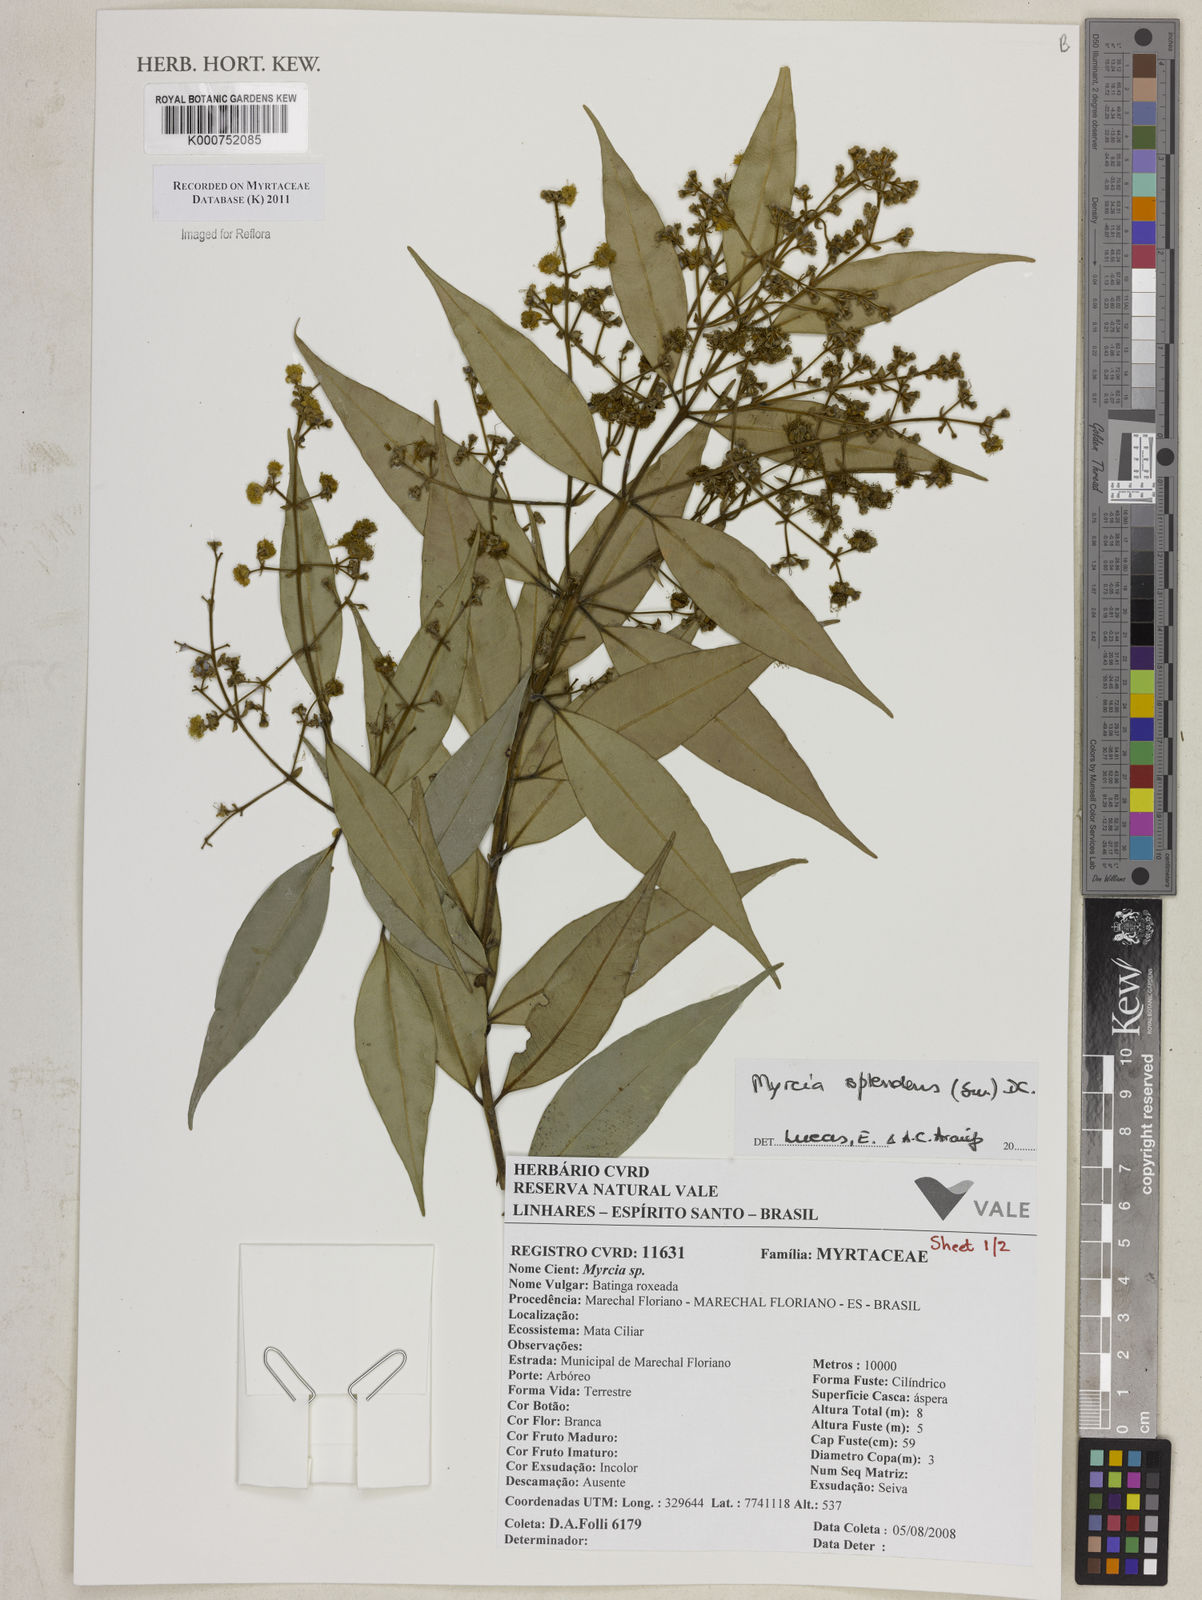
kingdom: Plantae
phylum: Tracheophyta
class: Magnoliopsida
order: Myrtales
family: Myrtaceae
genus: Myrcia
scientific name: Myrcia splendens
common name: Surinam cherry
